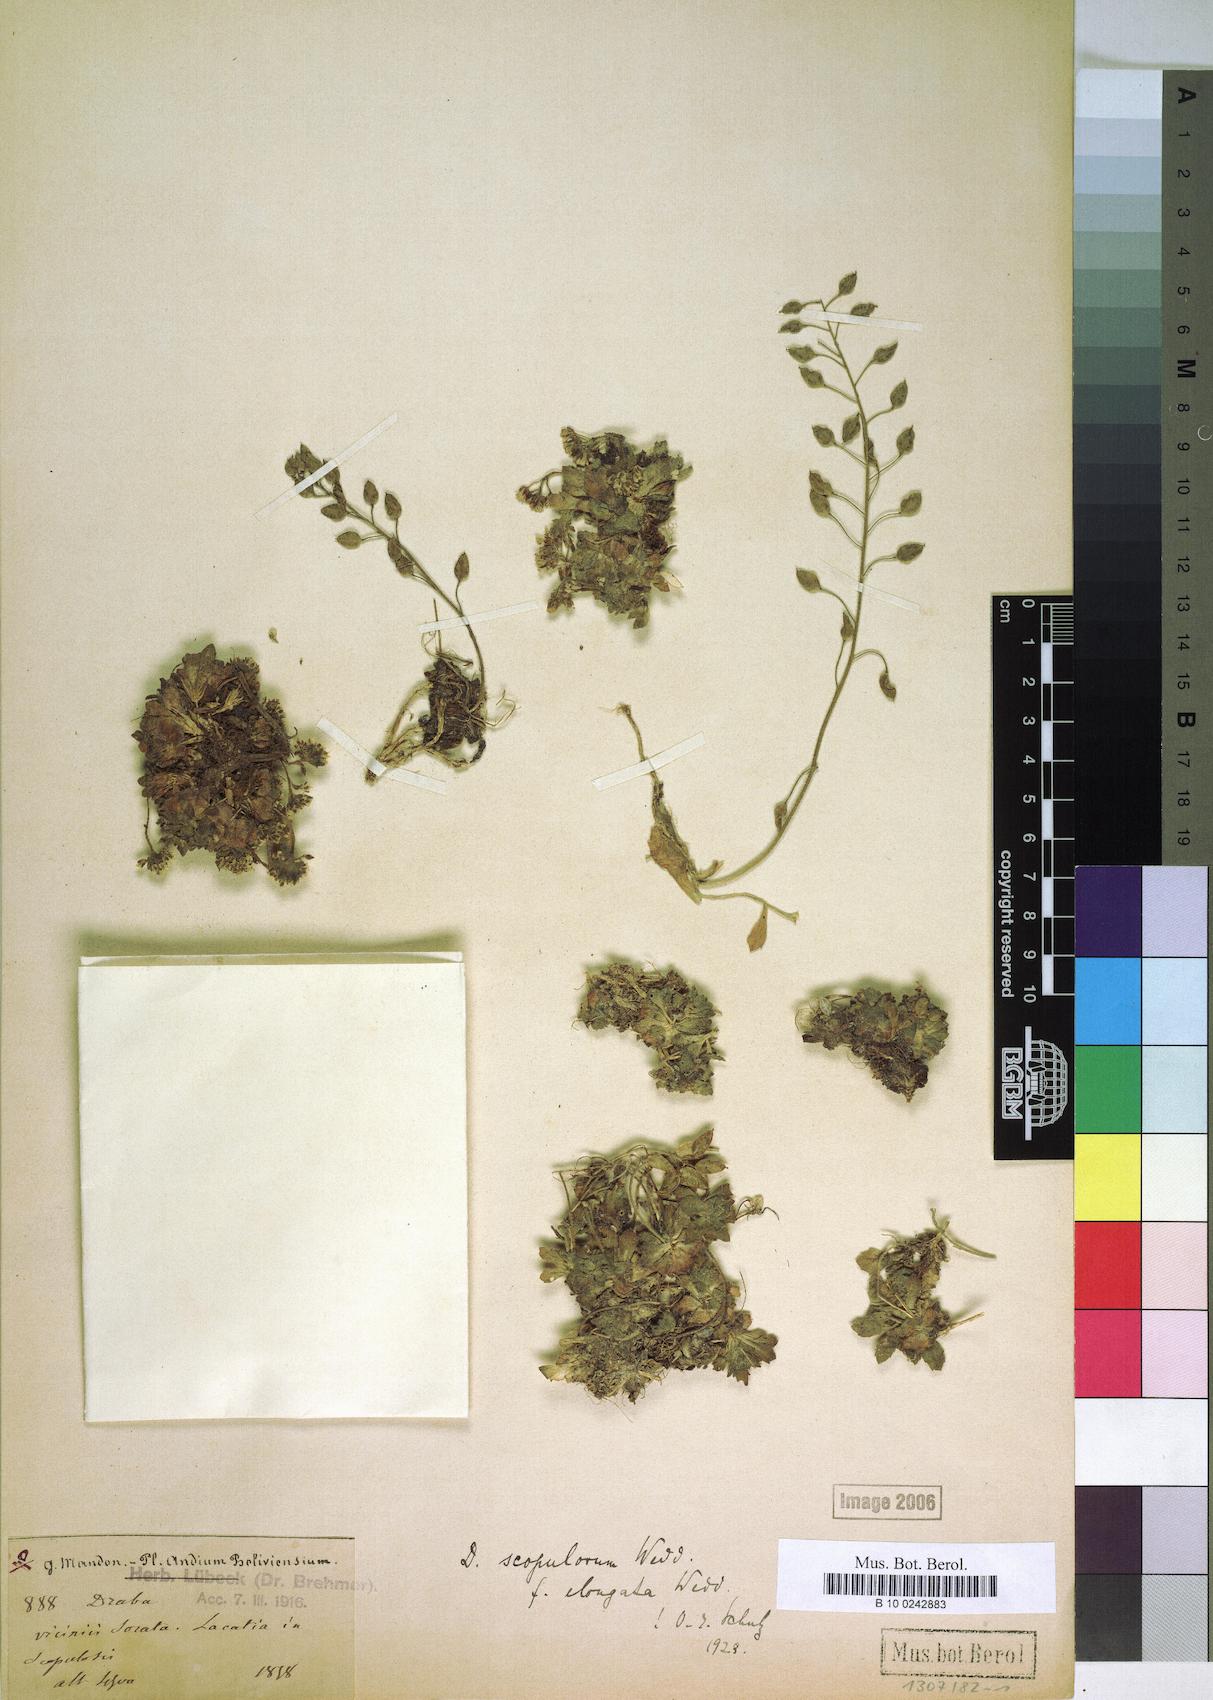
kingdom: Plantae
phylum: Tracheophyta
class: Magnoliopsida
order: Brassicales
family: Brassicaceae
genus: Draba
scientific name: Draba scopulorum
